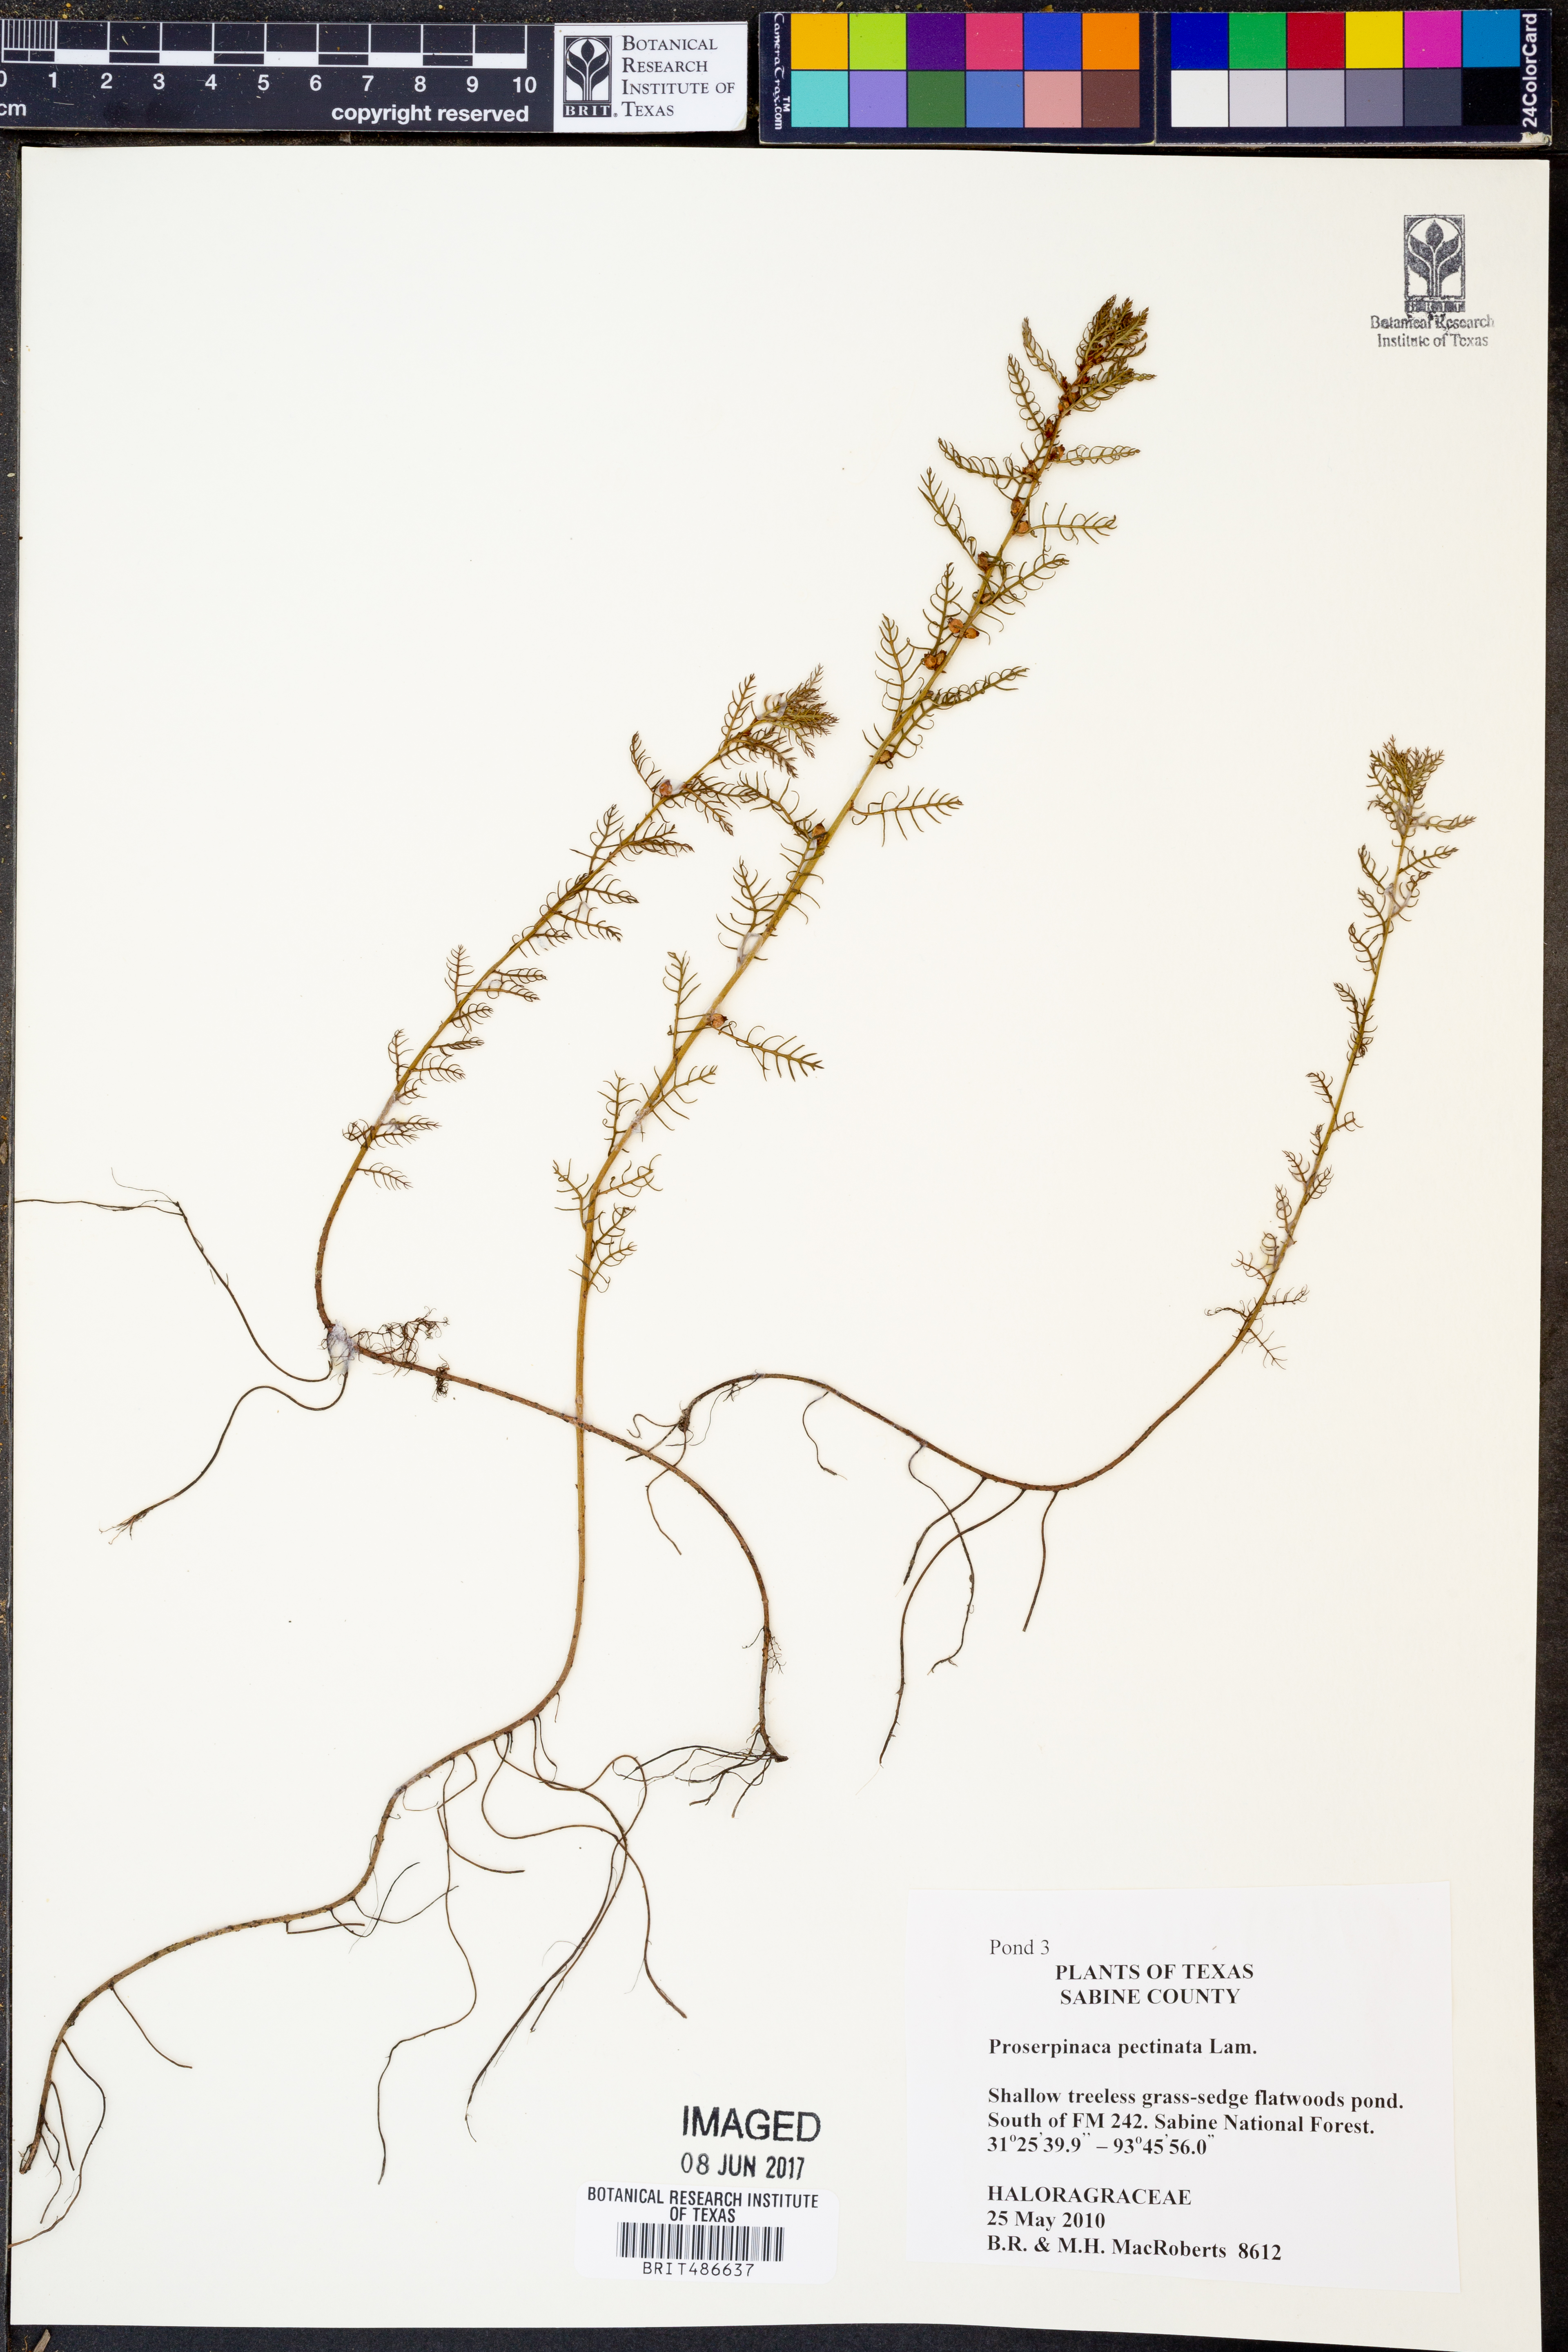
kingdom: Plantae
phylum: Tracheophyta
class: Magnoliopsida
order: Saxifragales
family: Haloragaceae
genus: Proserpinaca
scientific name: Proserpinaca pectinata
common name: Comb-leaved mermaidweed
